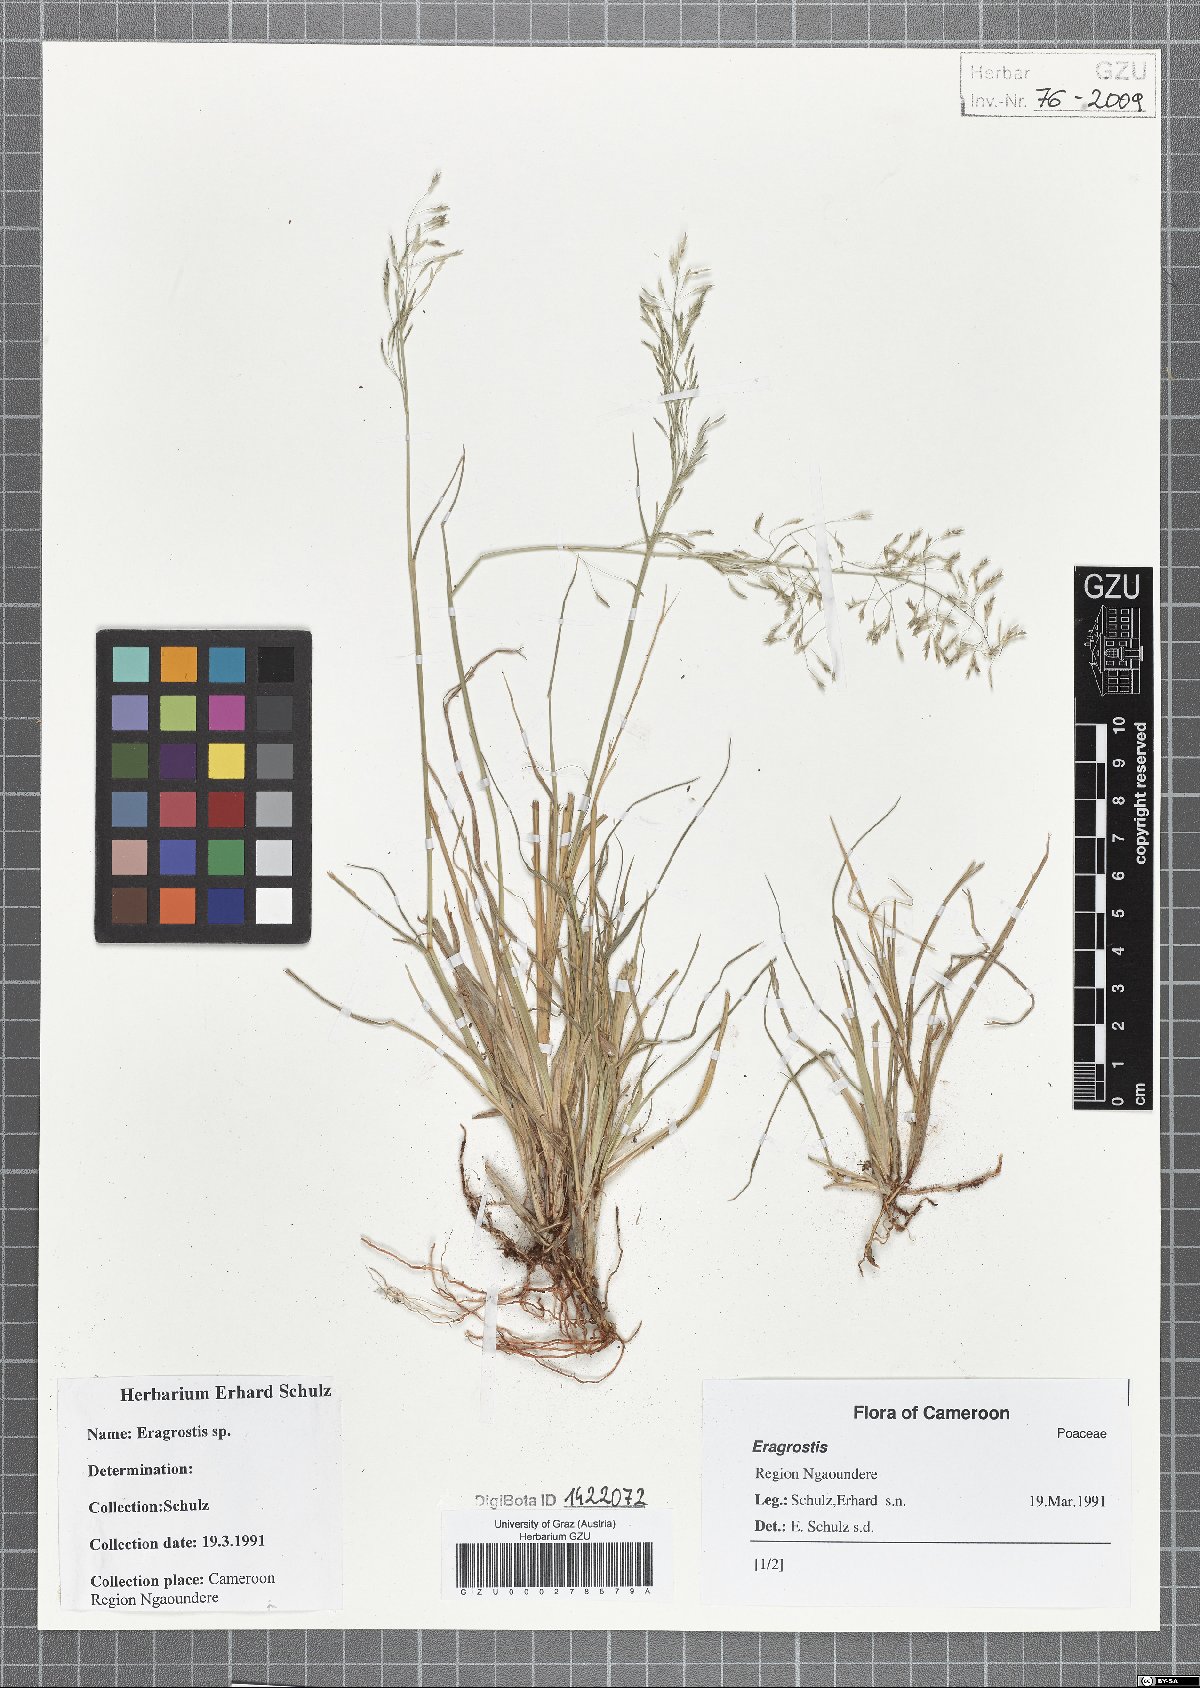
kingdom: Plantae
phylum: Tracheophyta
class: Liliopsida
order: Poales
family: Poaceae
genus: Eragrostis
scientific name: Eragrostis
